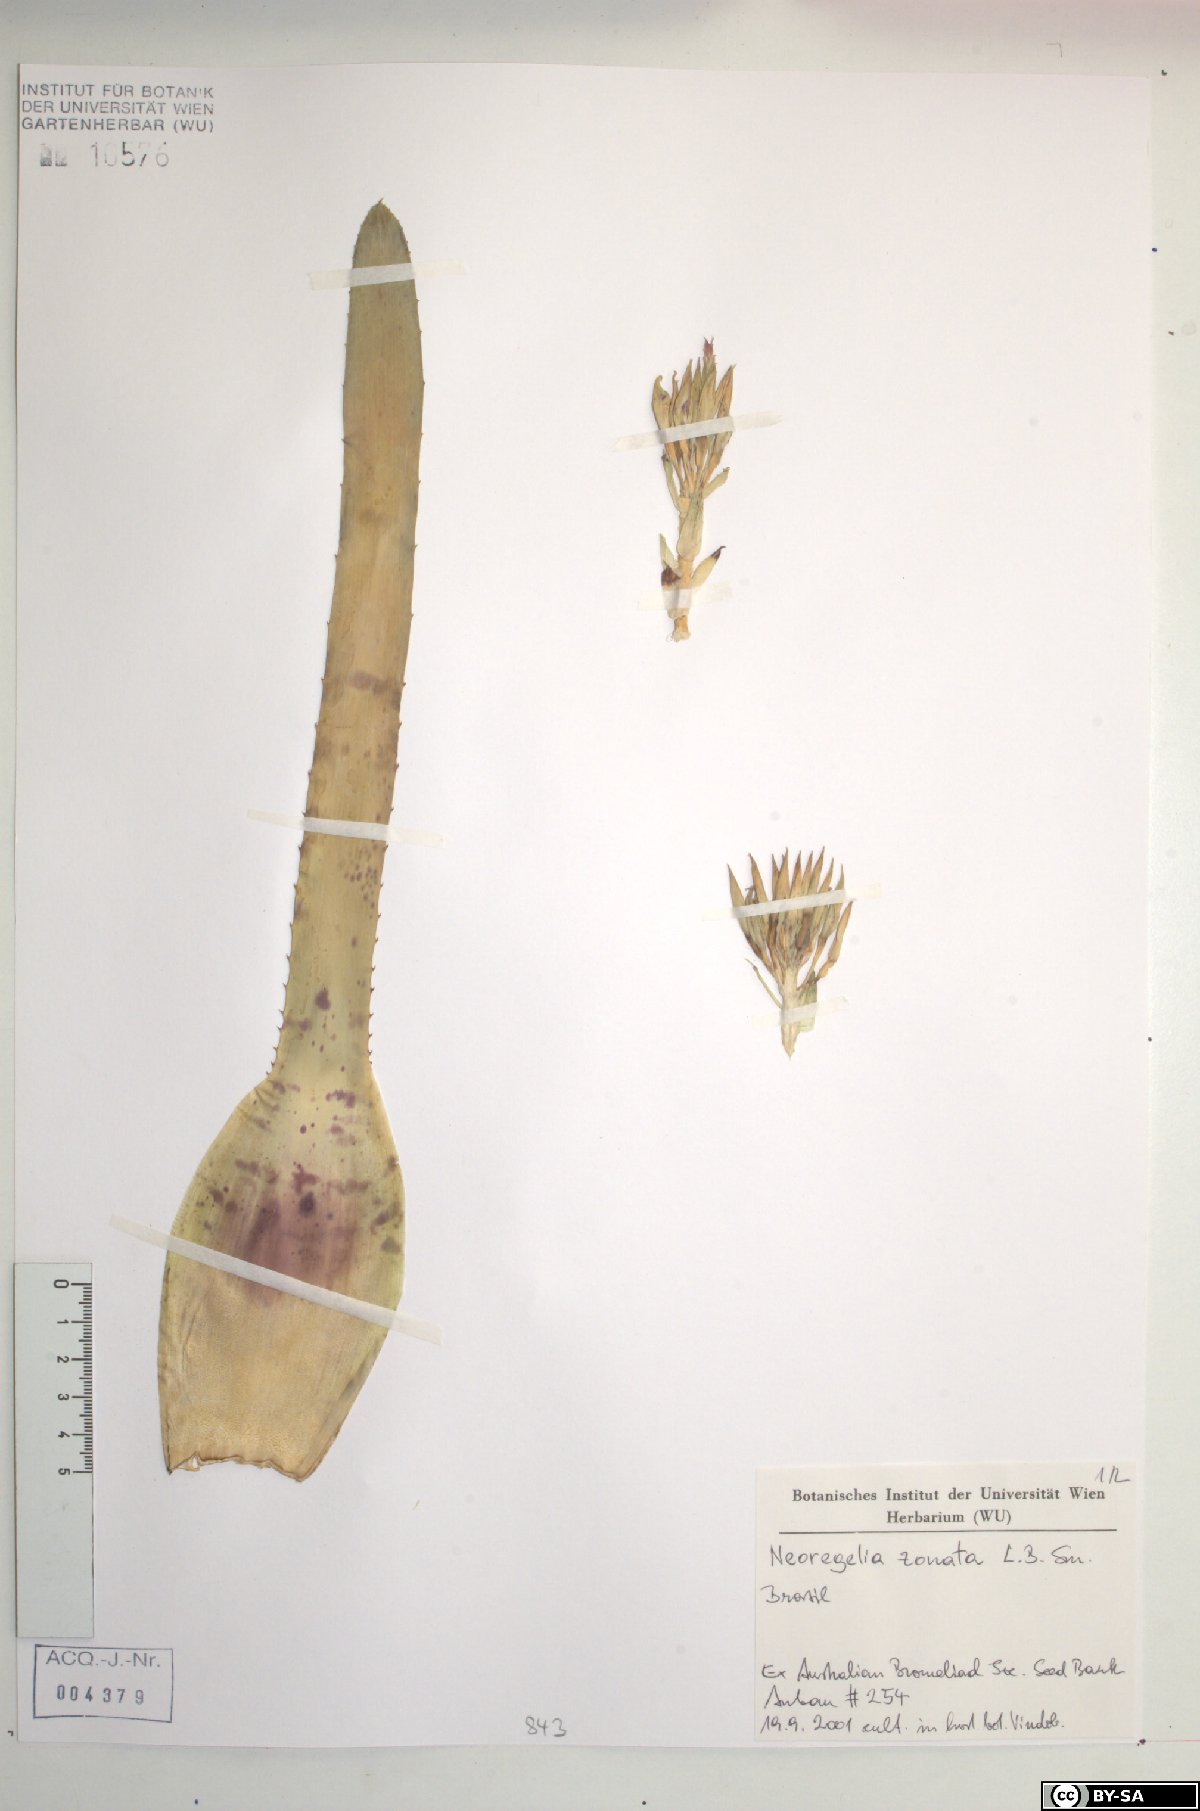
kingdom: Plantae
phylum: Tracheophyta
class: Liliopsida
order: Poales
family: Bromeliaceae
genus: Neoregelia
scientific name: Neoregelia zonata
